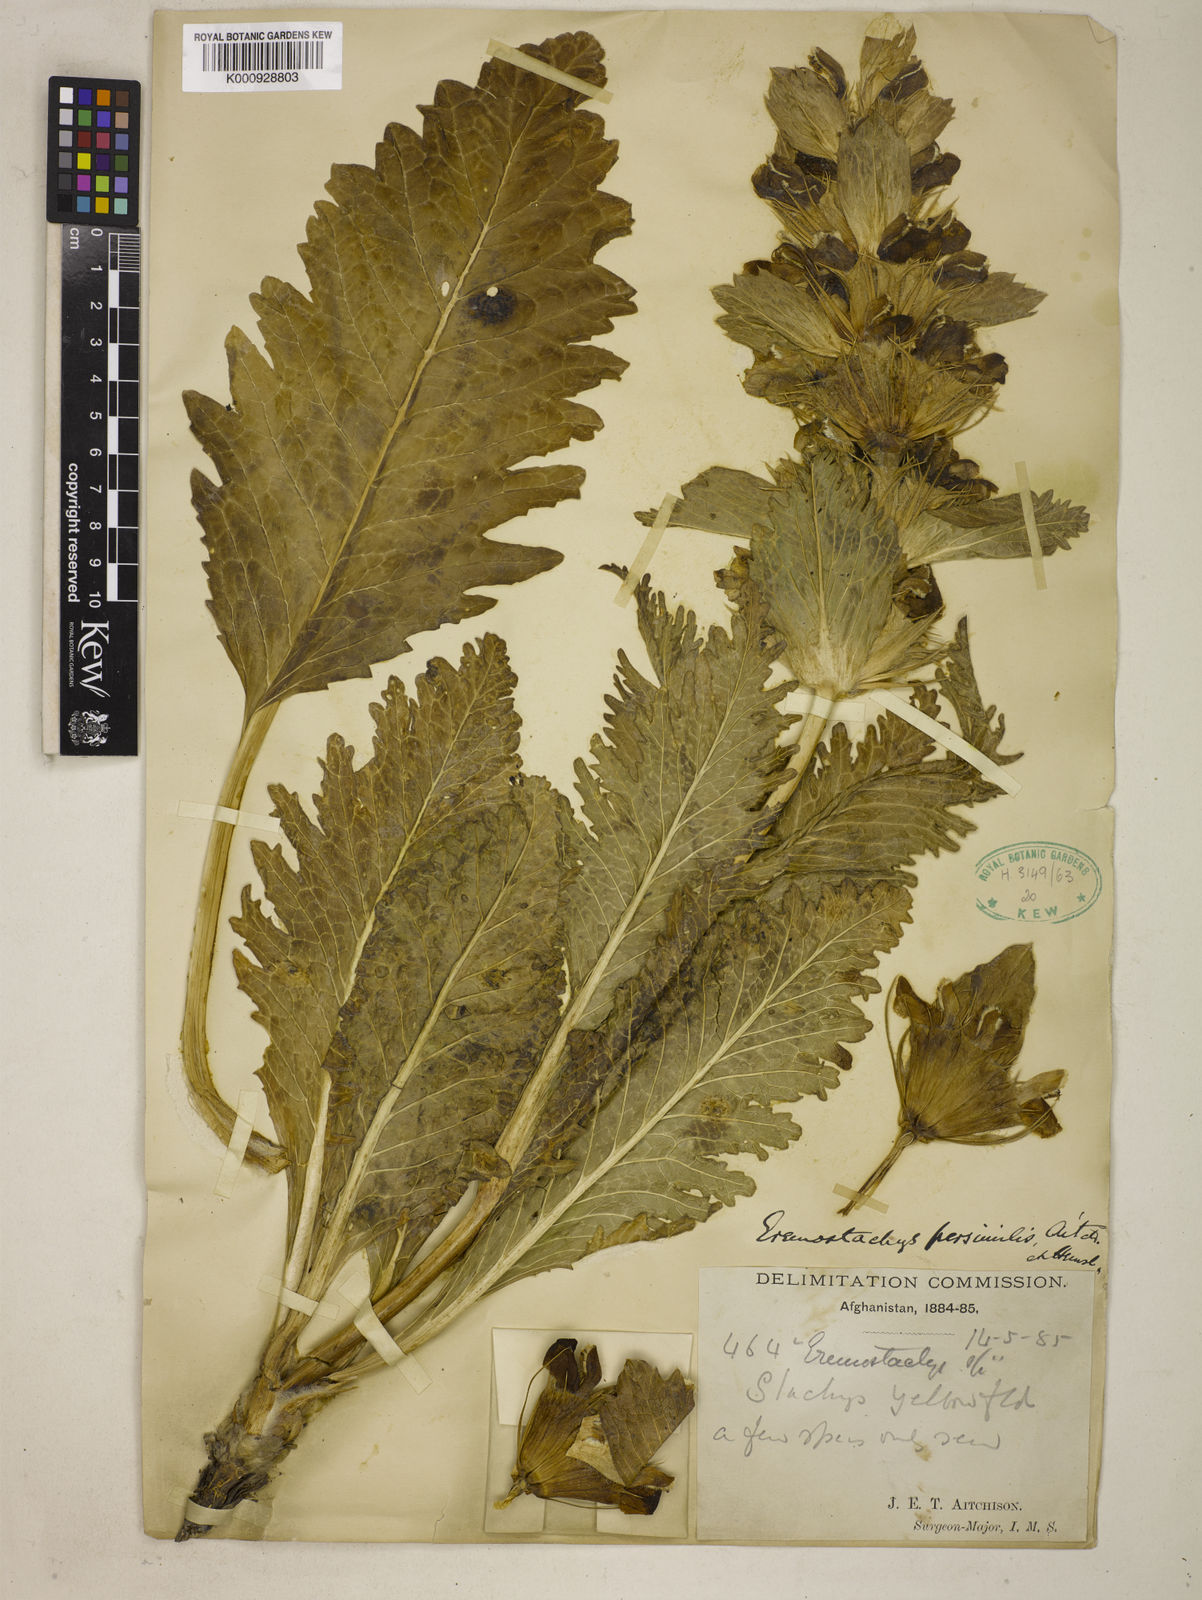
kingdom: Plantae
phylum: Tracheophyta
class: Magnoliopsida
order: Lamiales
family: Lamiaceae
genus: Phlomoides
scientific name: Phlomoides persimilis
